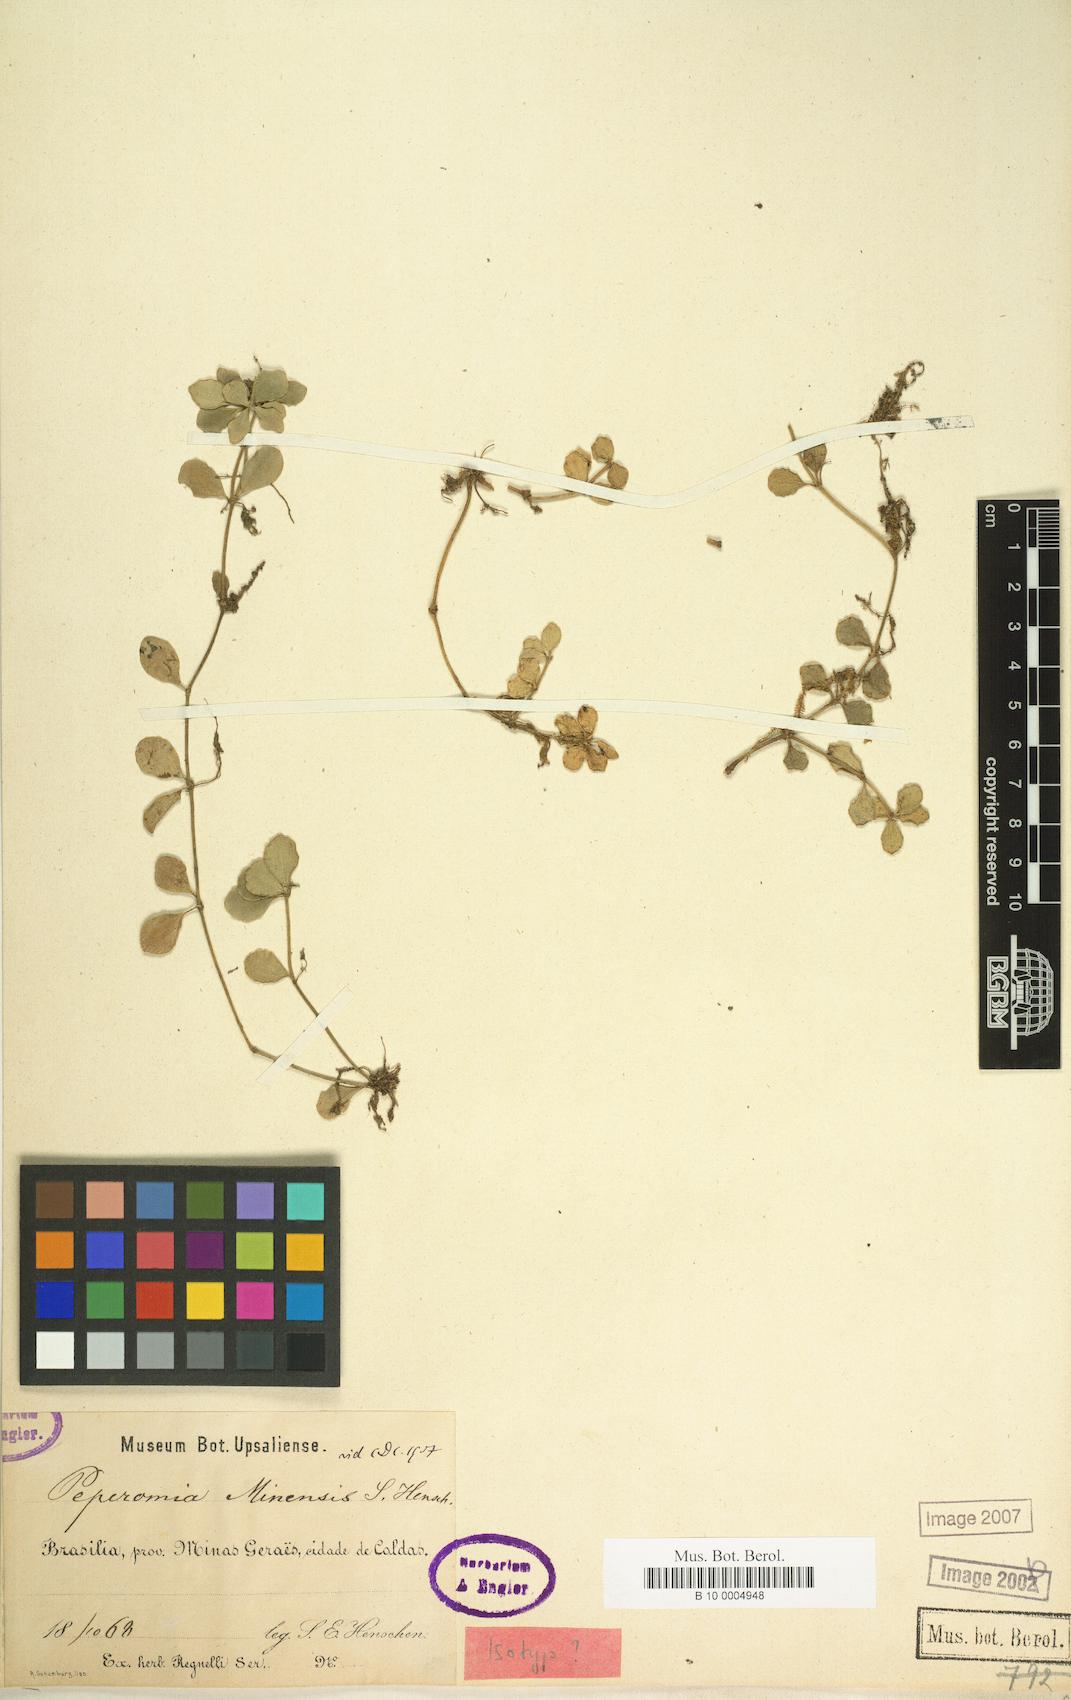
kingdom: Plantae
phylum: Tracheophyta
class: Magnoliopsida
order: Piperales
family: Piperaceae
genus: Peperomia
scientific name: Peperomia minensis
